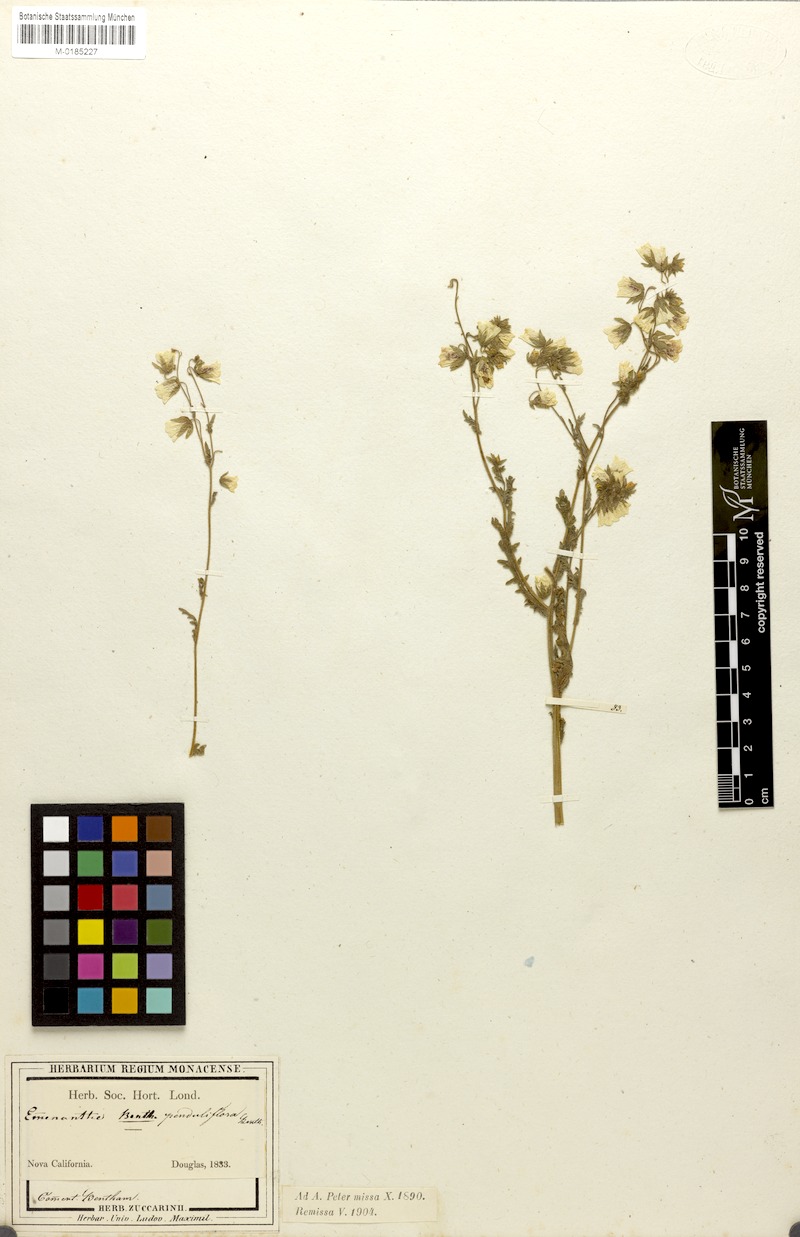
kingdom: Plantae
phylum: Tracheophyta
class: Magnoliopsida
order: Boraginales
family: Hydrophyllaceae
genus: Emmenanthe
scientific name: Emmenanthe penduliflora
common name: Whispering-bells
